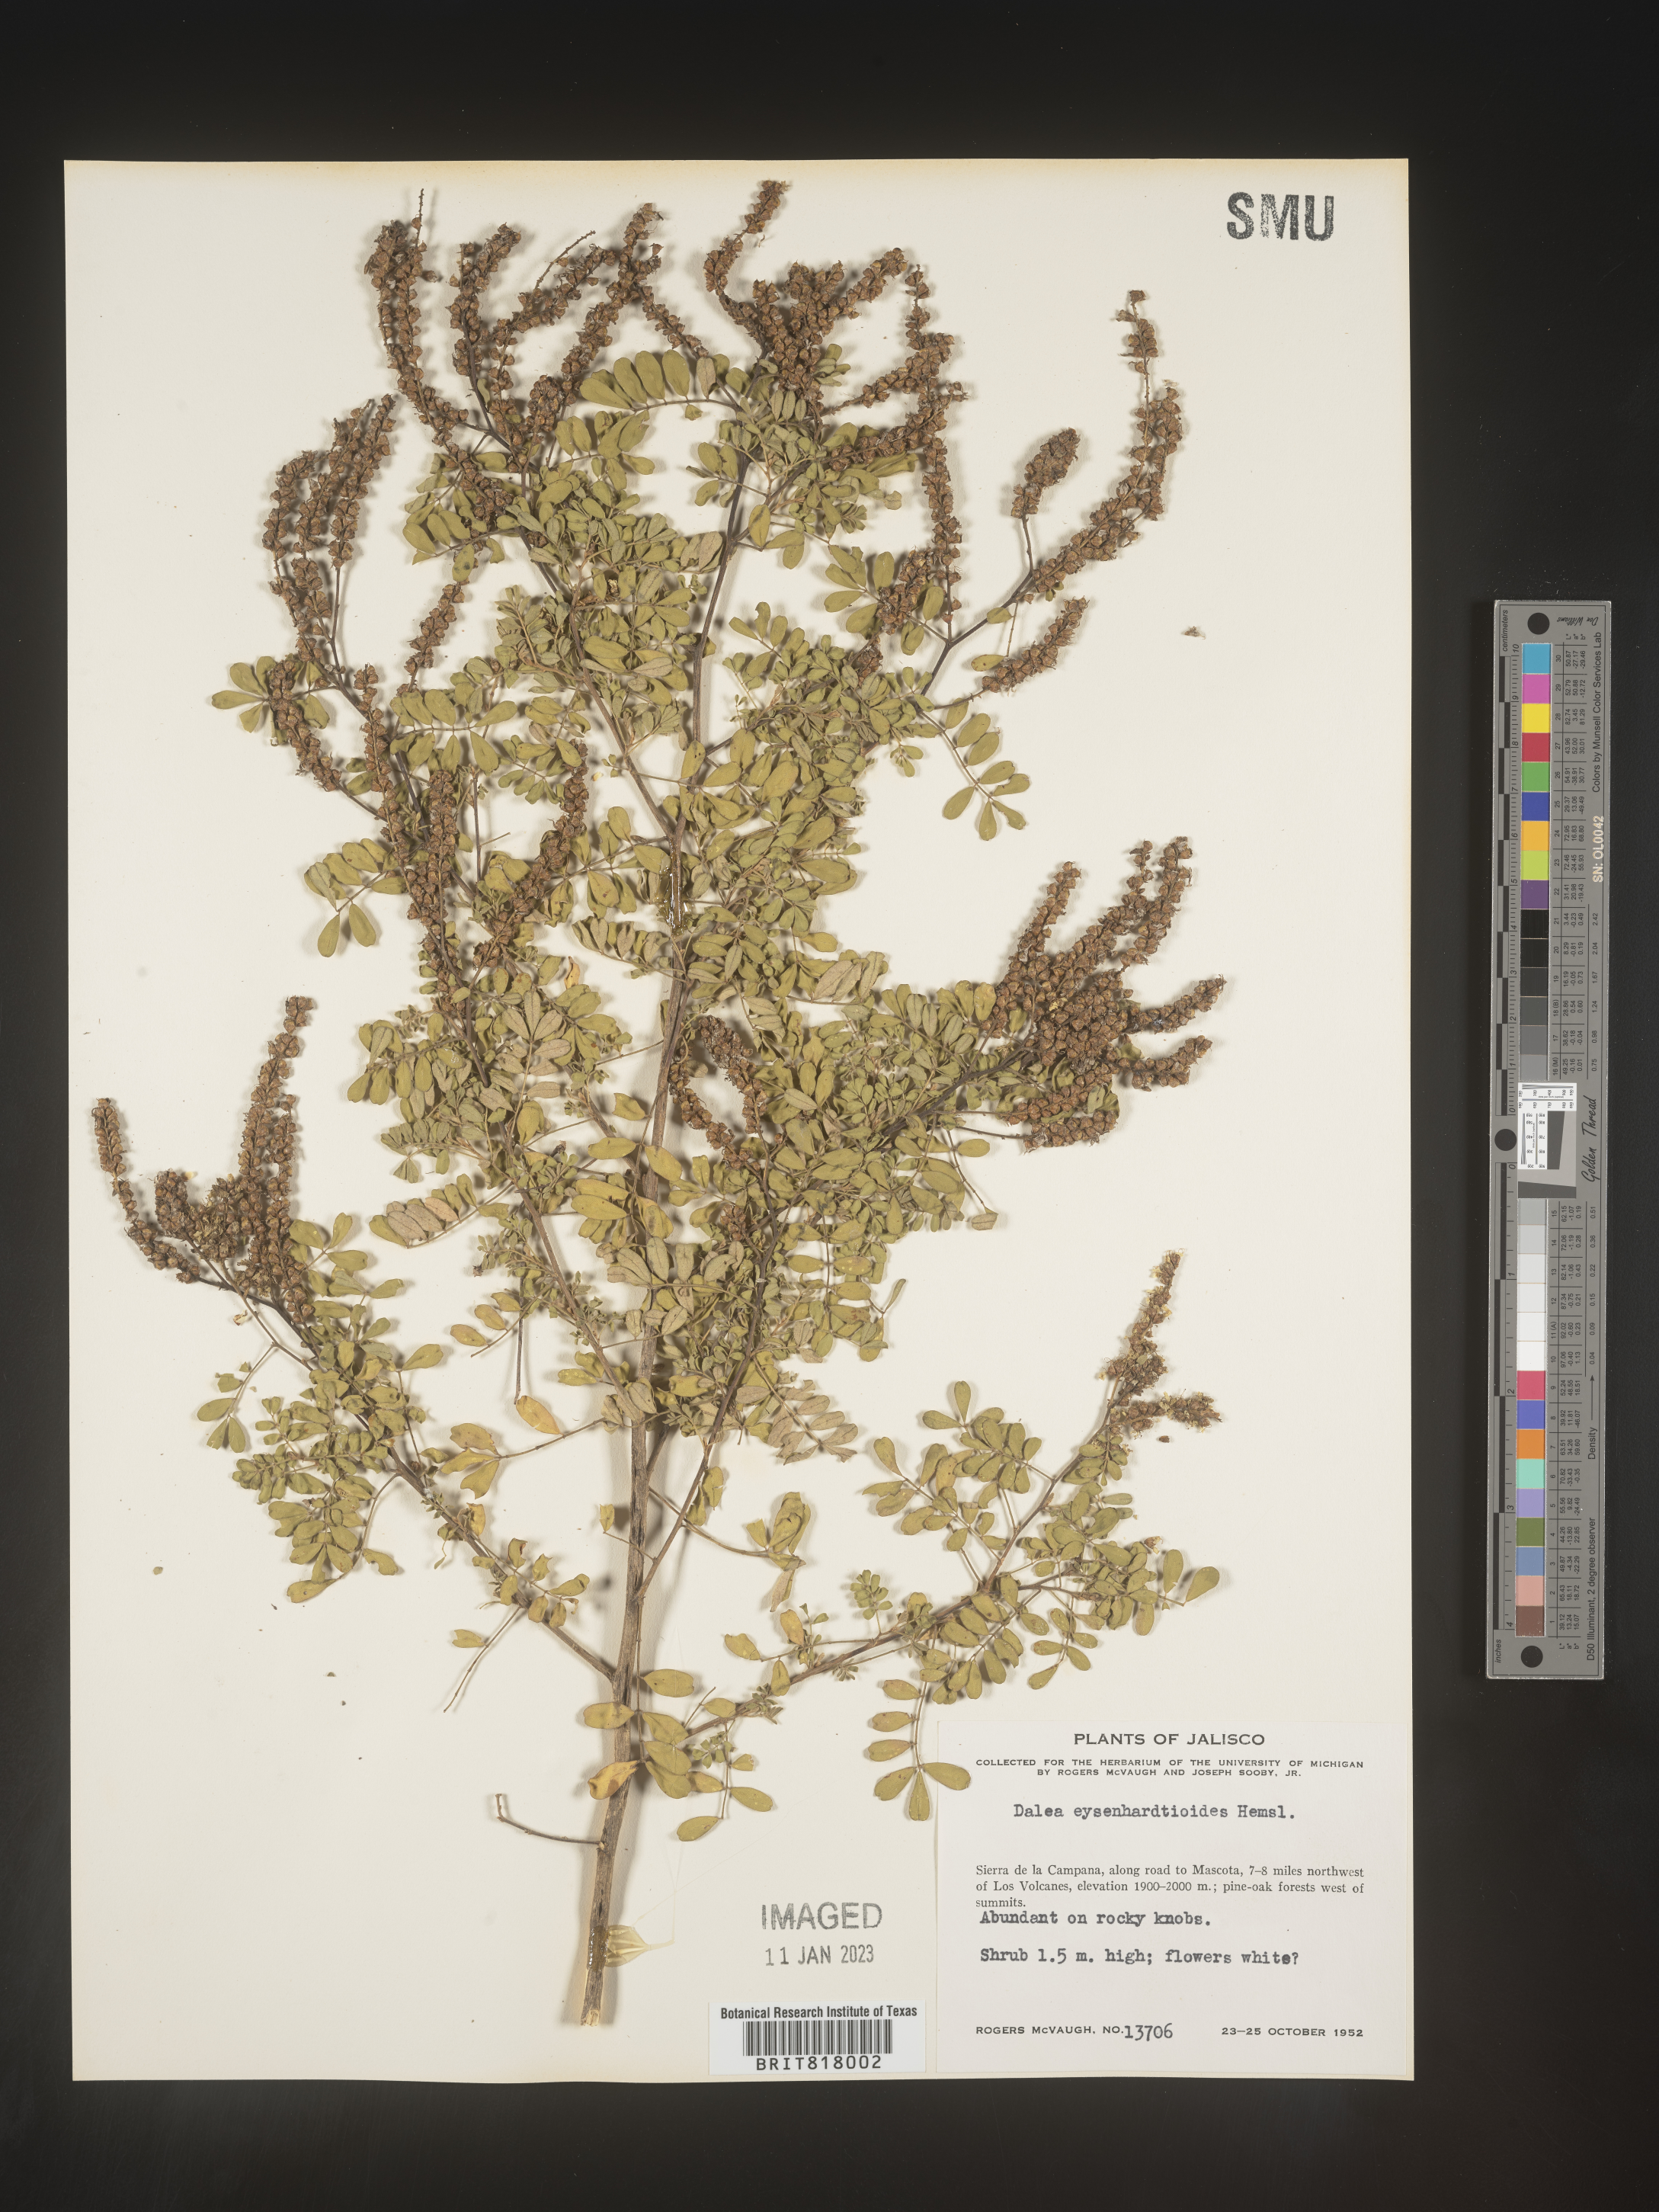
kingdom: Plantae
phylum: Tracheophyta
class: Magnoliopsida
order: Fabales
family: Fabaceae
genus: Dalea
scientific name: Dalea
